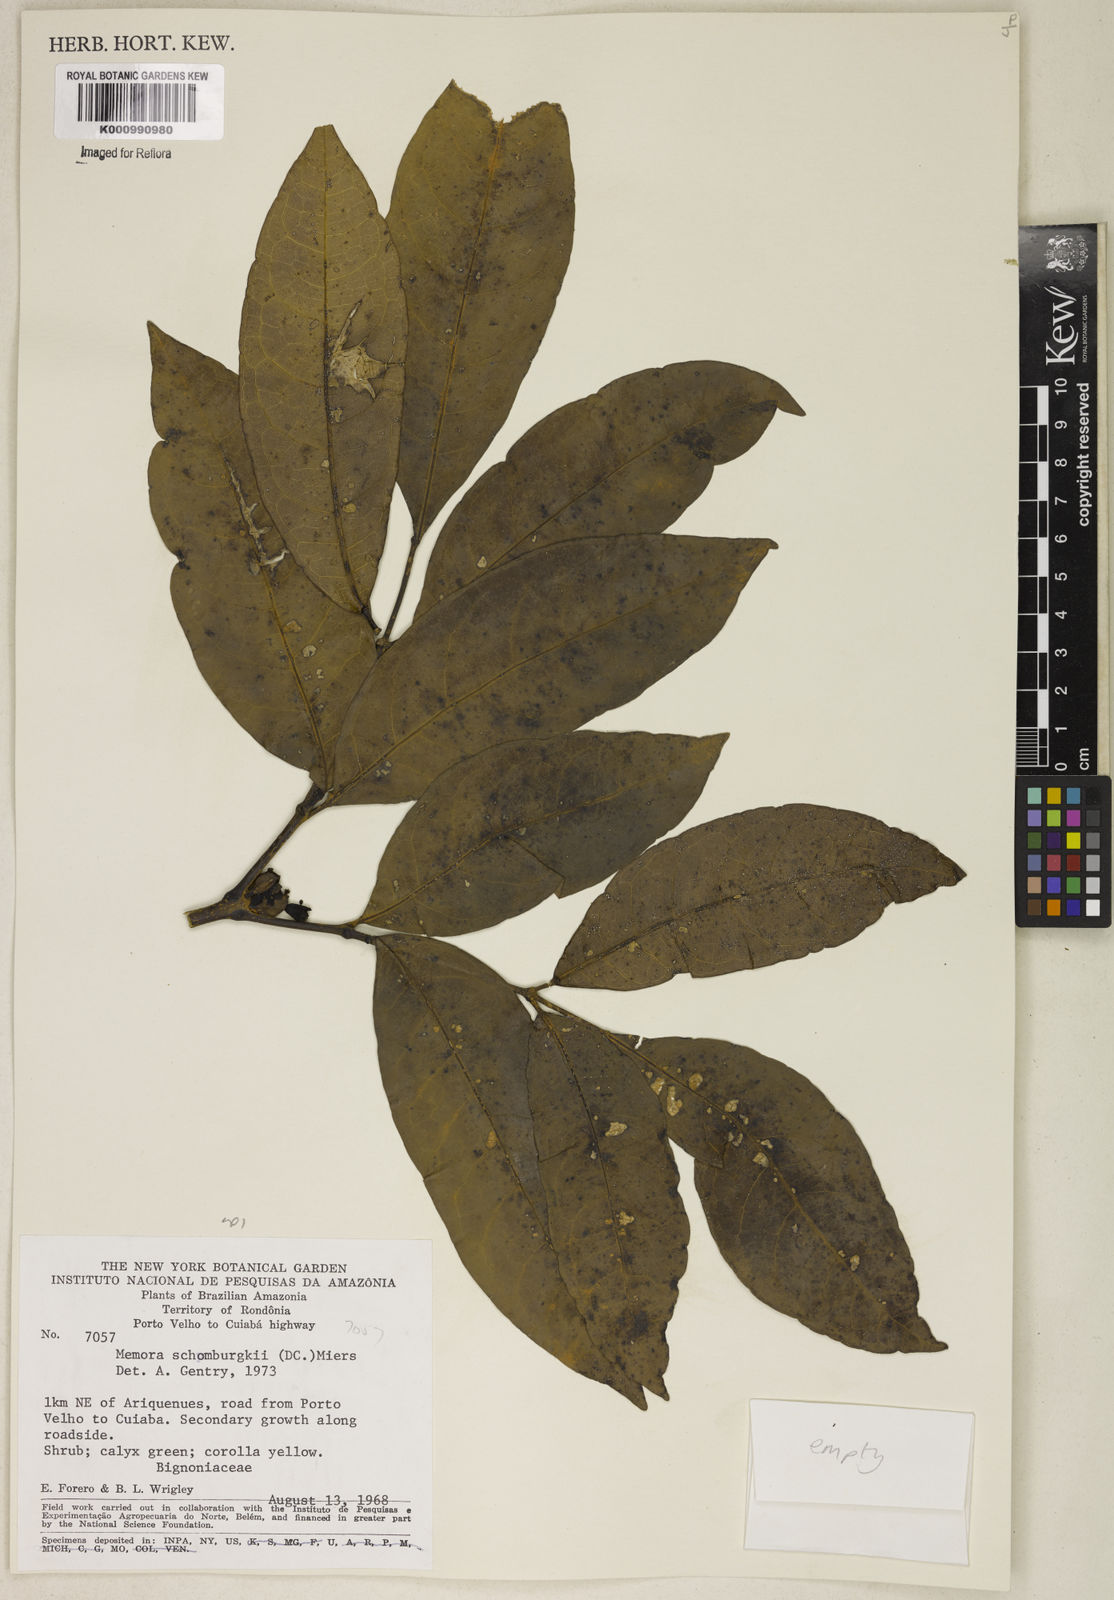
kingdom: Plantae
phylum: Tracheophyta
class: Magnoliopsida
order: Lamiales
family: Bignoniaceae
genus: Adenocalymma
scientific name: Adenocalymma schomburgkii
